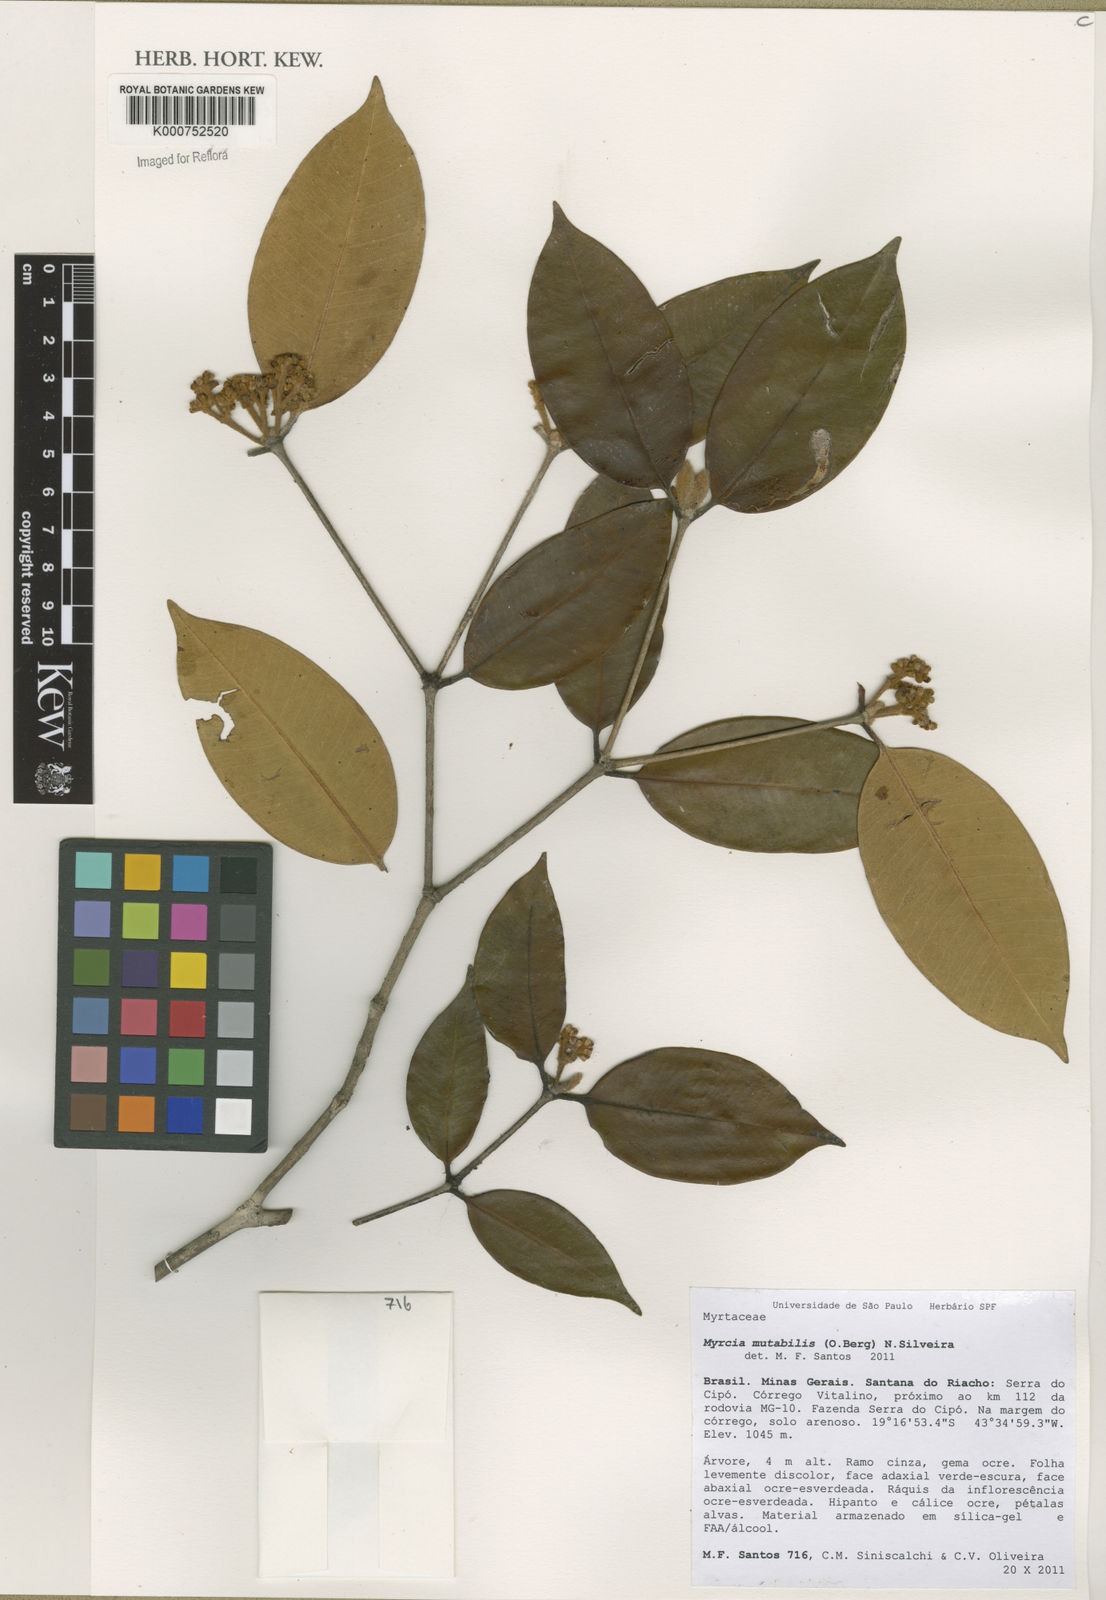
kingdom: Plantae
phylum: Tracheophyta
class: Magnoliopsida
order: Myrtales
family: Myrtaceae
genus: Myrcia
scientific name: Myrcia mutabilis
